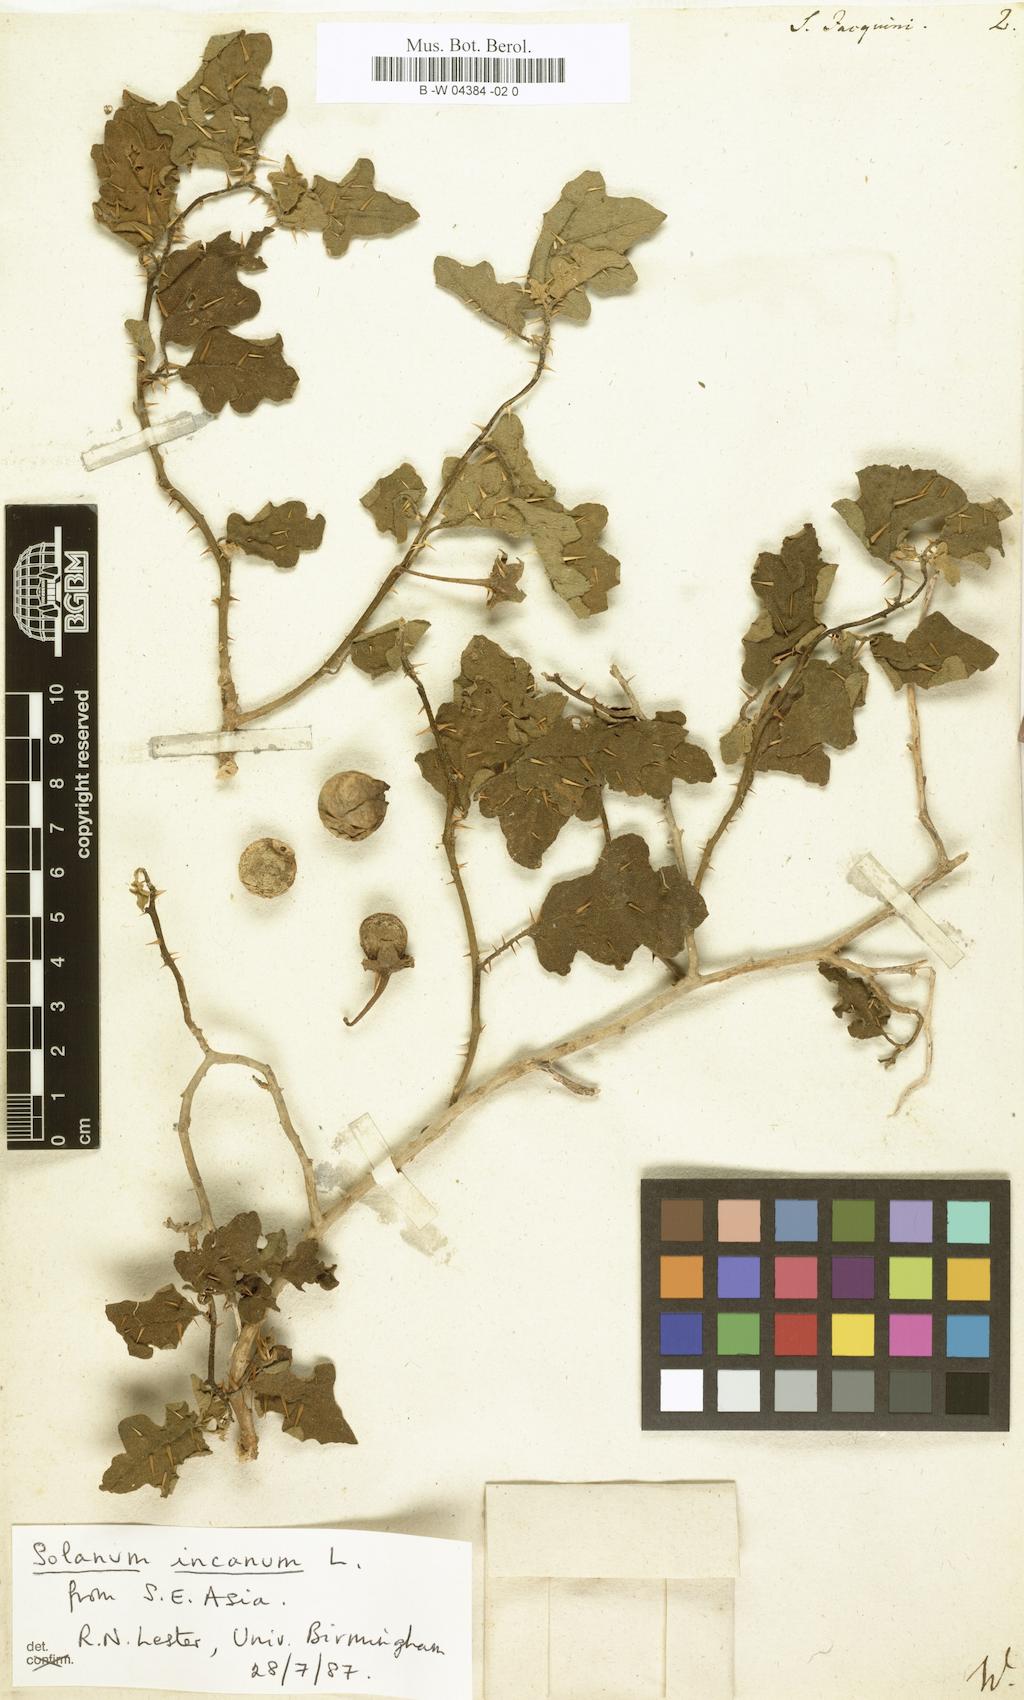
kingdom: Plantae
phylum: Tracheophyta
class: Magnoliopsida
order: Solanales
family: Solanaceae
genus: Solanum
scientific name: Solanum virginianum
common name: Surattense nightshade
